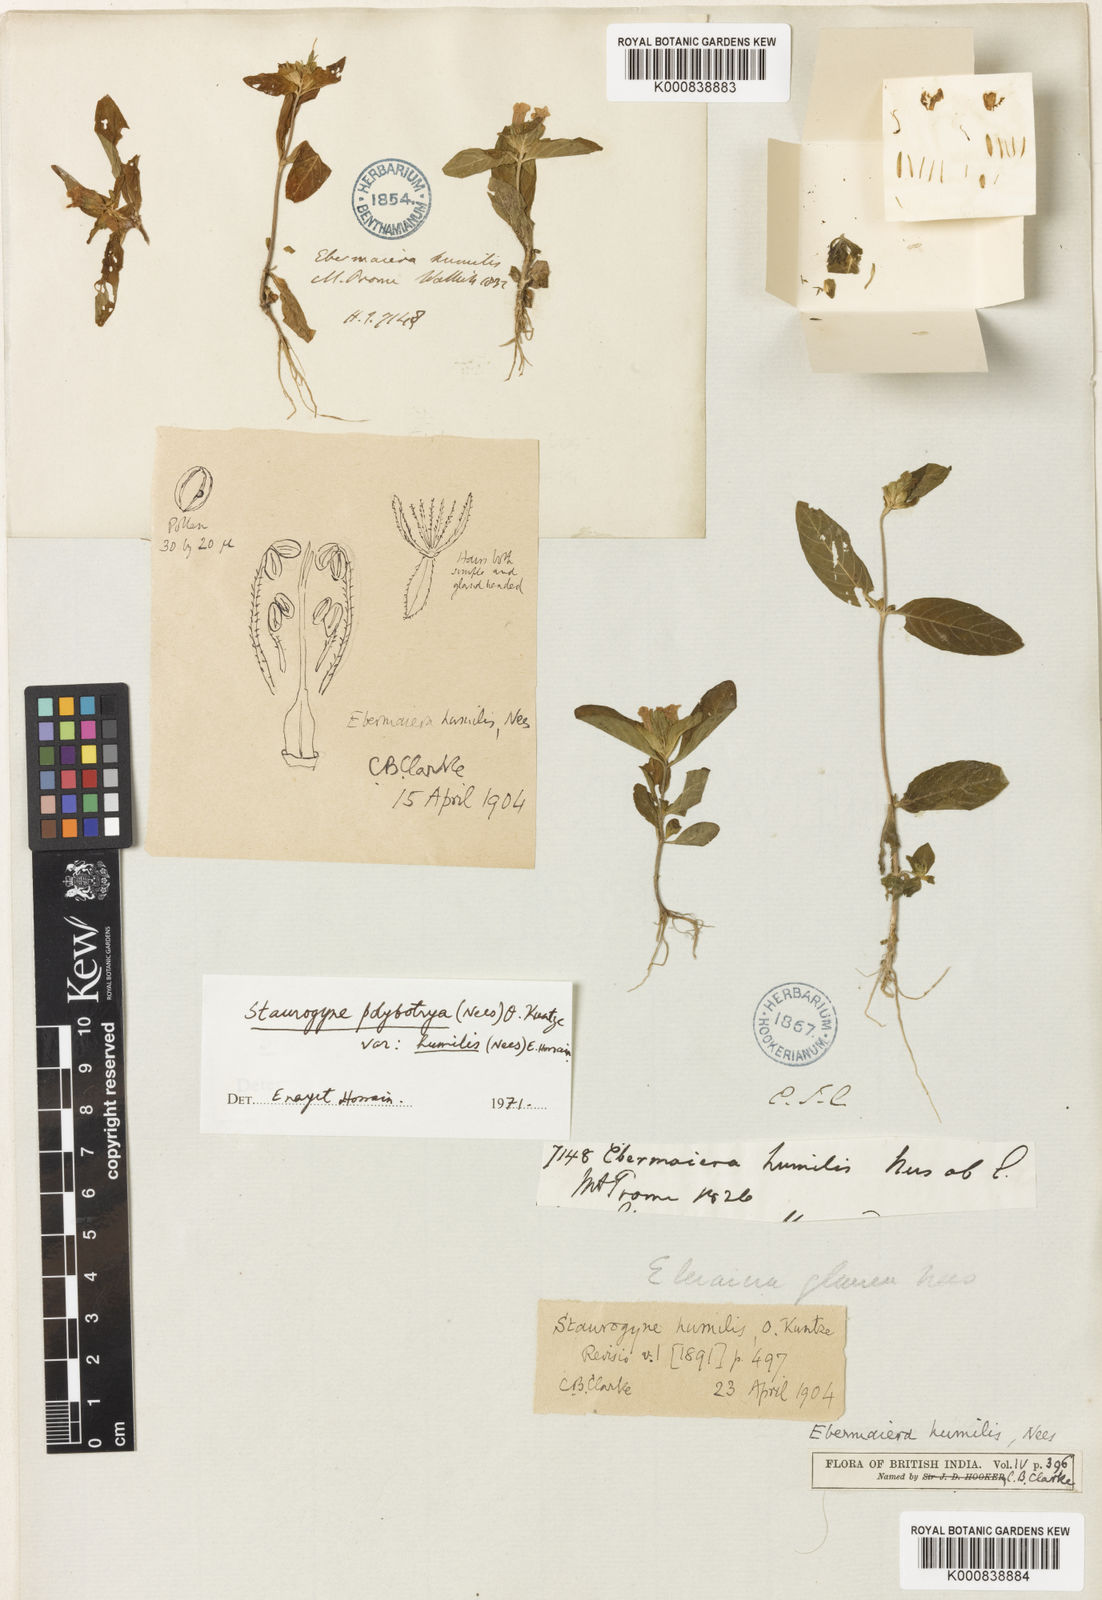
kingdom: Plantae
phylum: Tracheophyta
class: Magnoliopsida
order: Lamiales
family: Acanthaceae
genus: Staurogyne
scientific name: Staurogyne polybotrya
